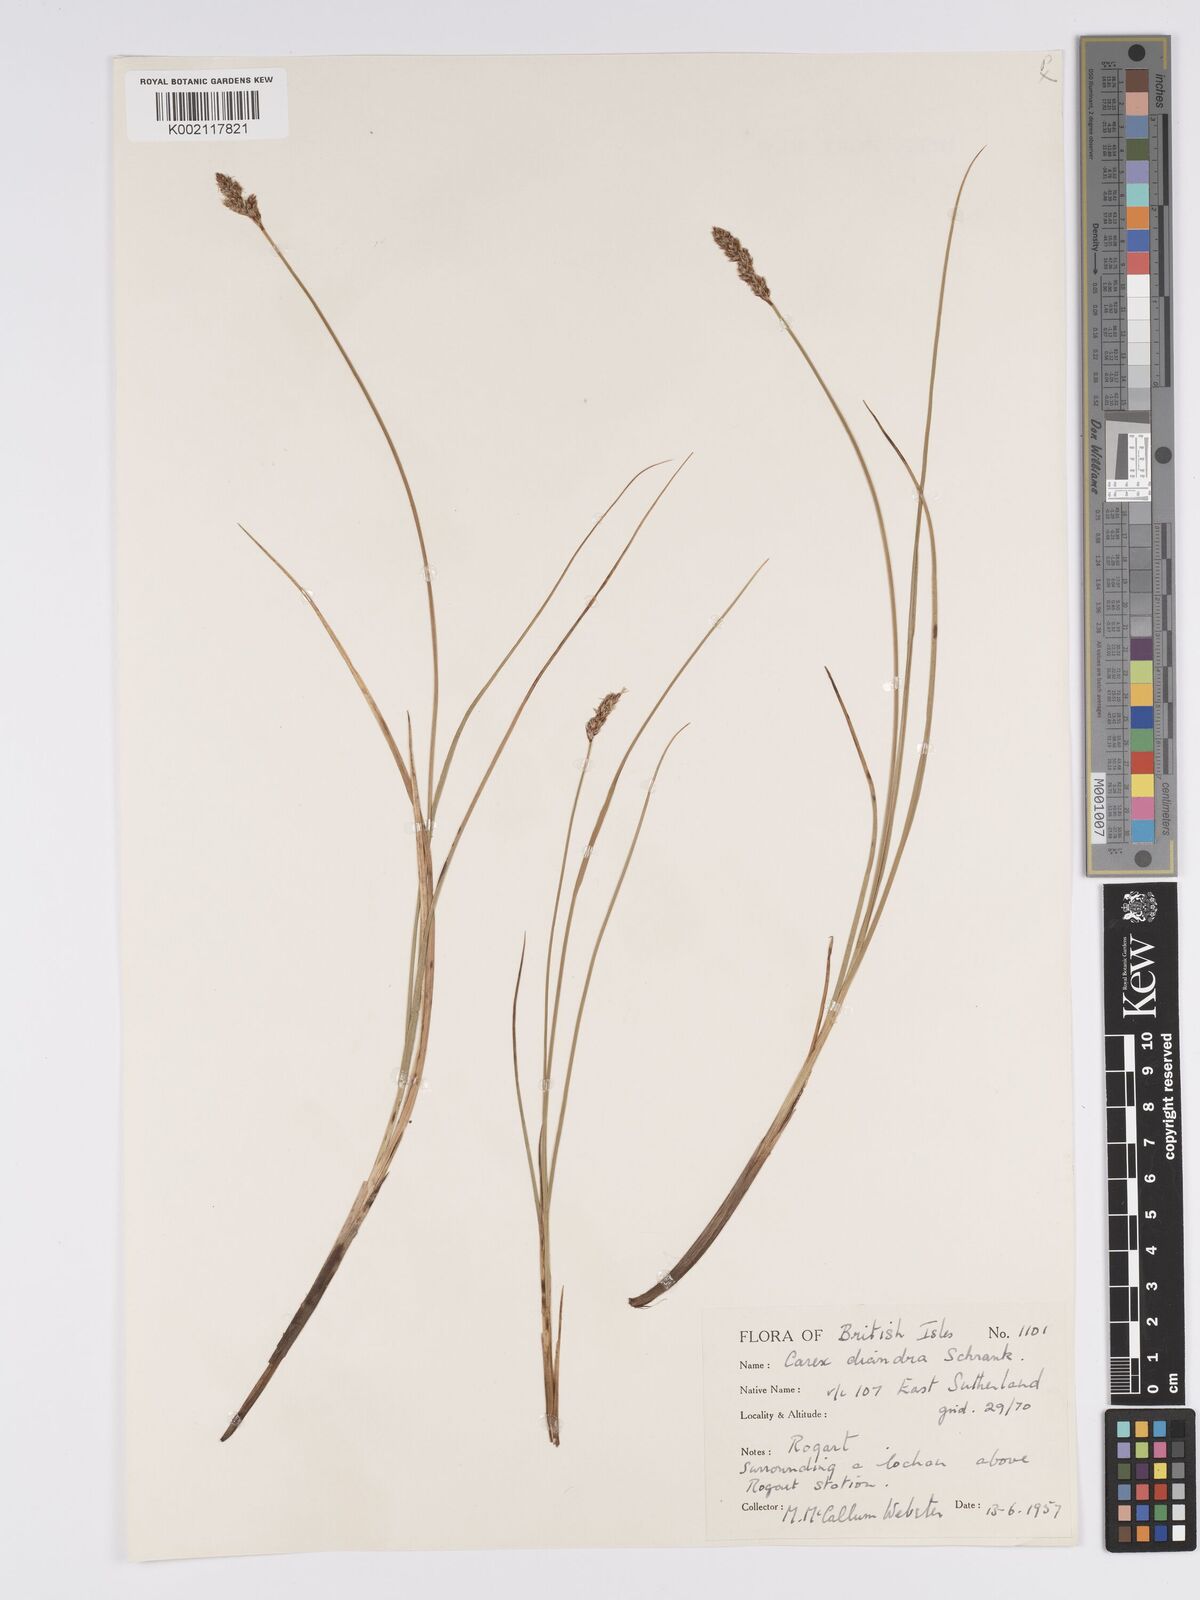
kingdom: Plantae
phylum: Tracheophyta
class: Liliopsida
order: Poales
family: Cyperaceae
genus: Carex
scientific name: Carex diandra
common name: Lesser tussock-sedge
